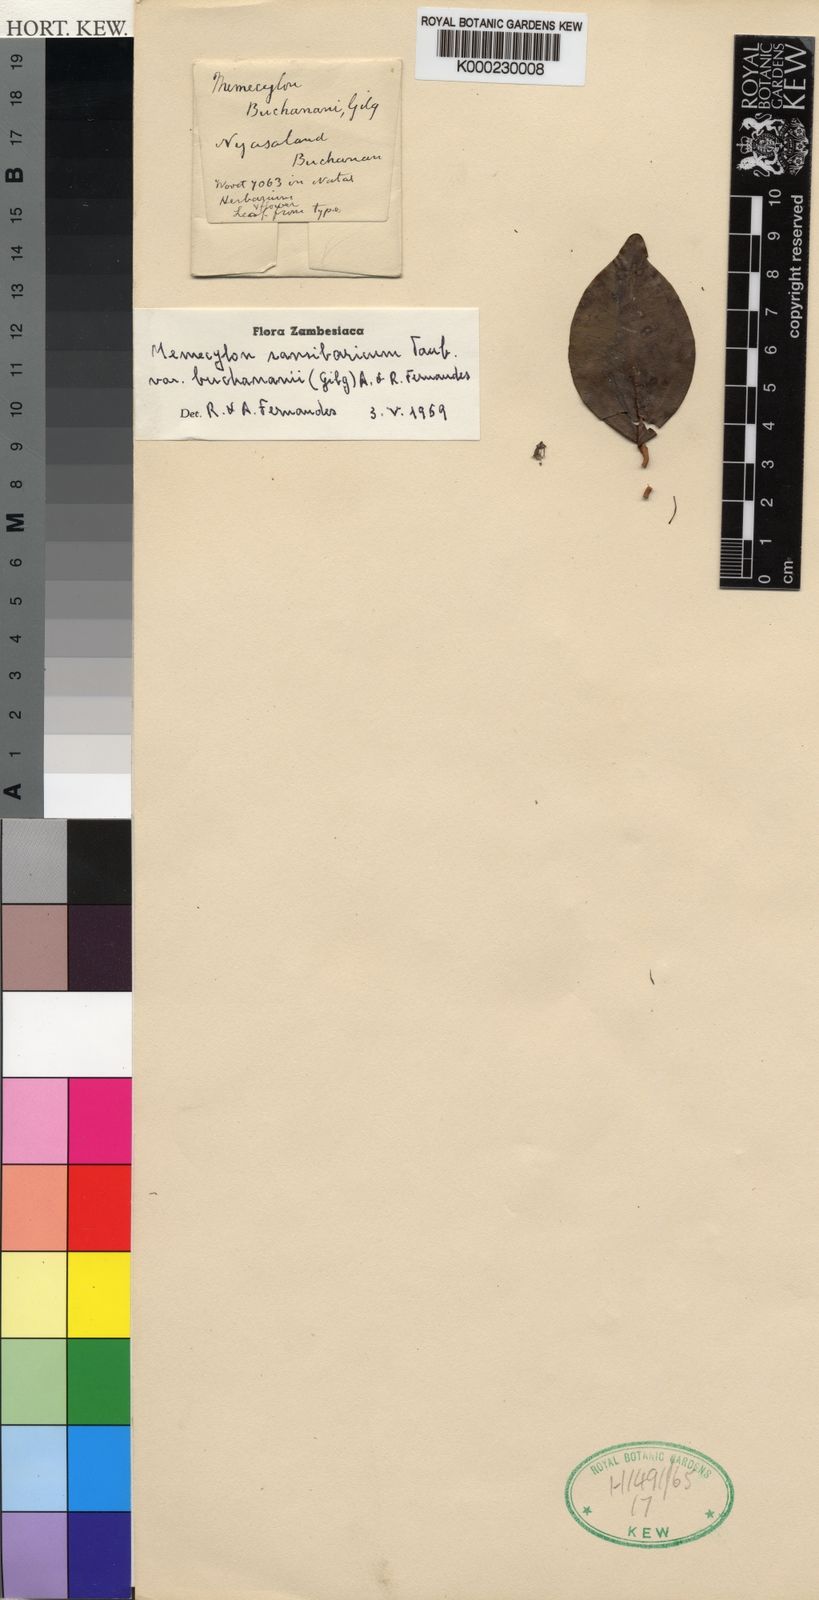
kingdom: Plantae
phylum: Tracheophyta
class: Magnoliopsida
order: Myrtales
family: Melastomataceae
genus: Warneckea
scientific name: Warneckea
